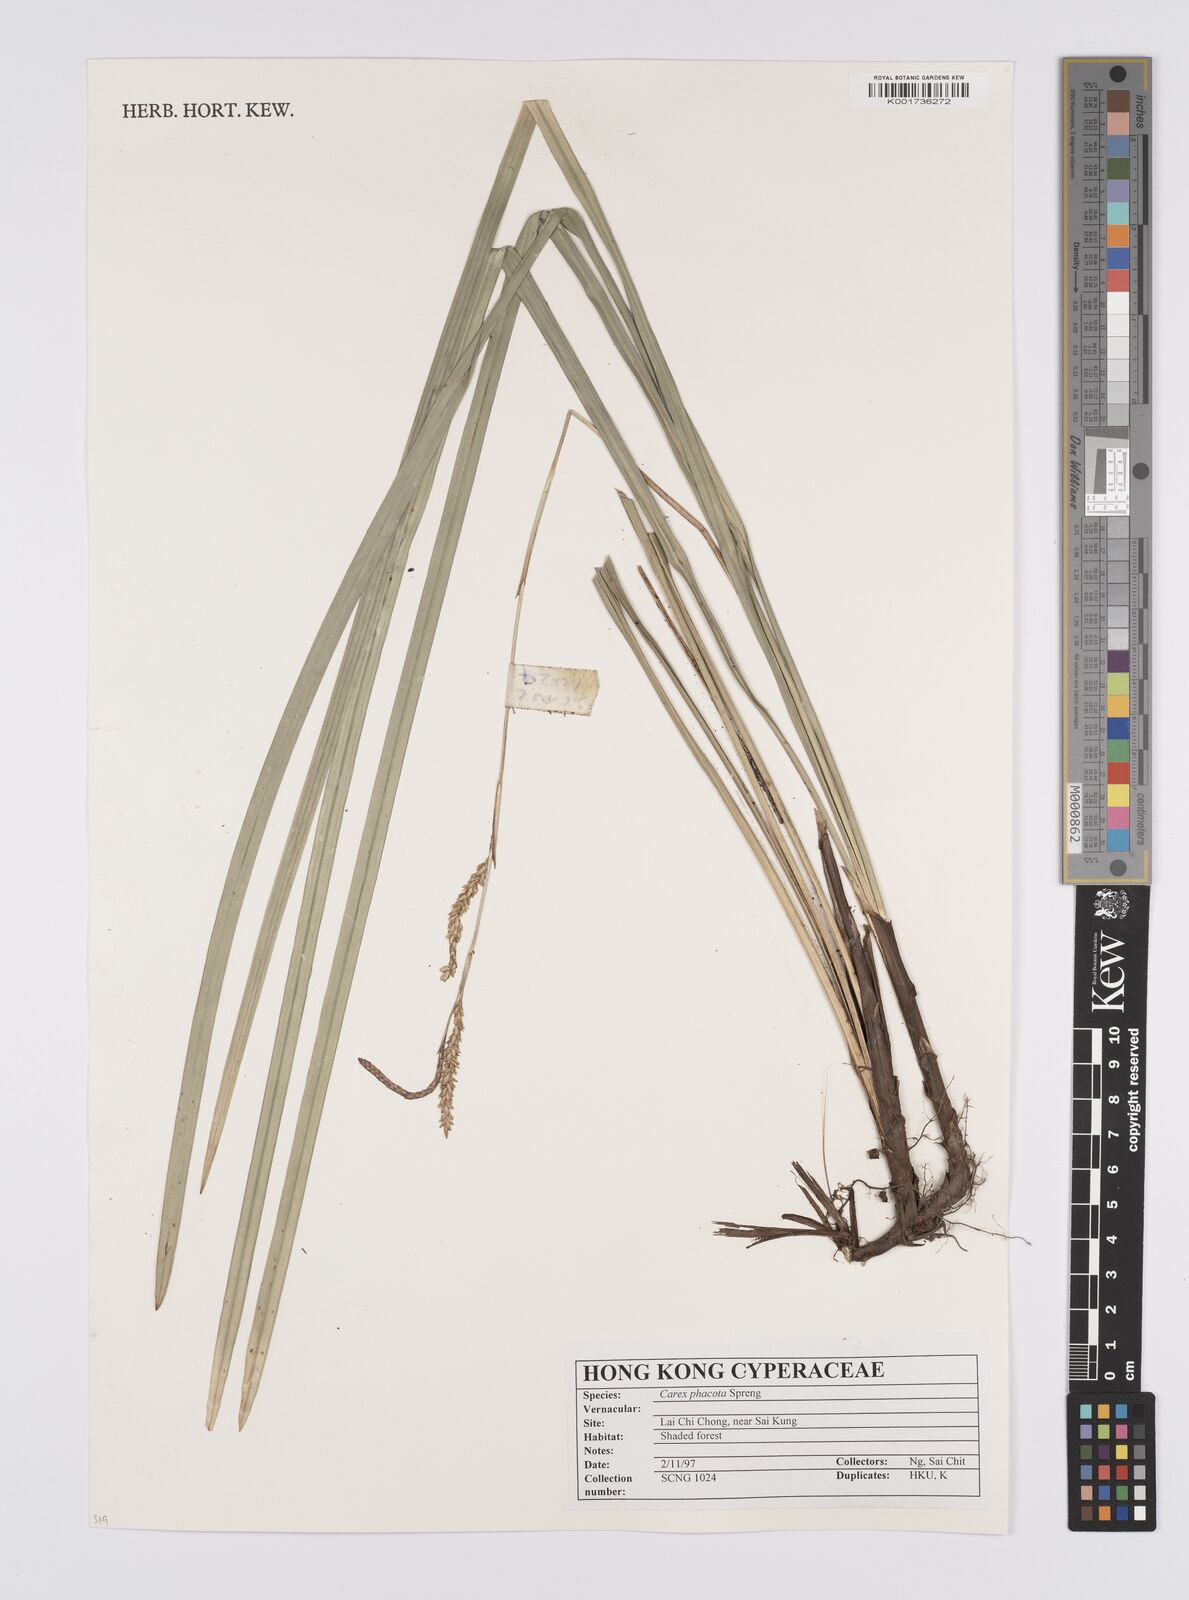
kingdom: Plantae
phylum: Tracheophyta
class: Liliopsida
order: Poales
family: Cyperaceae
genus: Carex
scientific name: Carex phacota
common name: Lakeshore sedge
